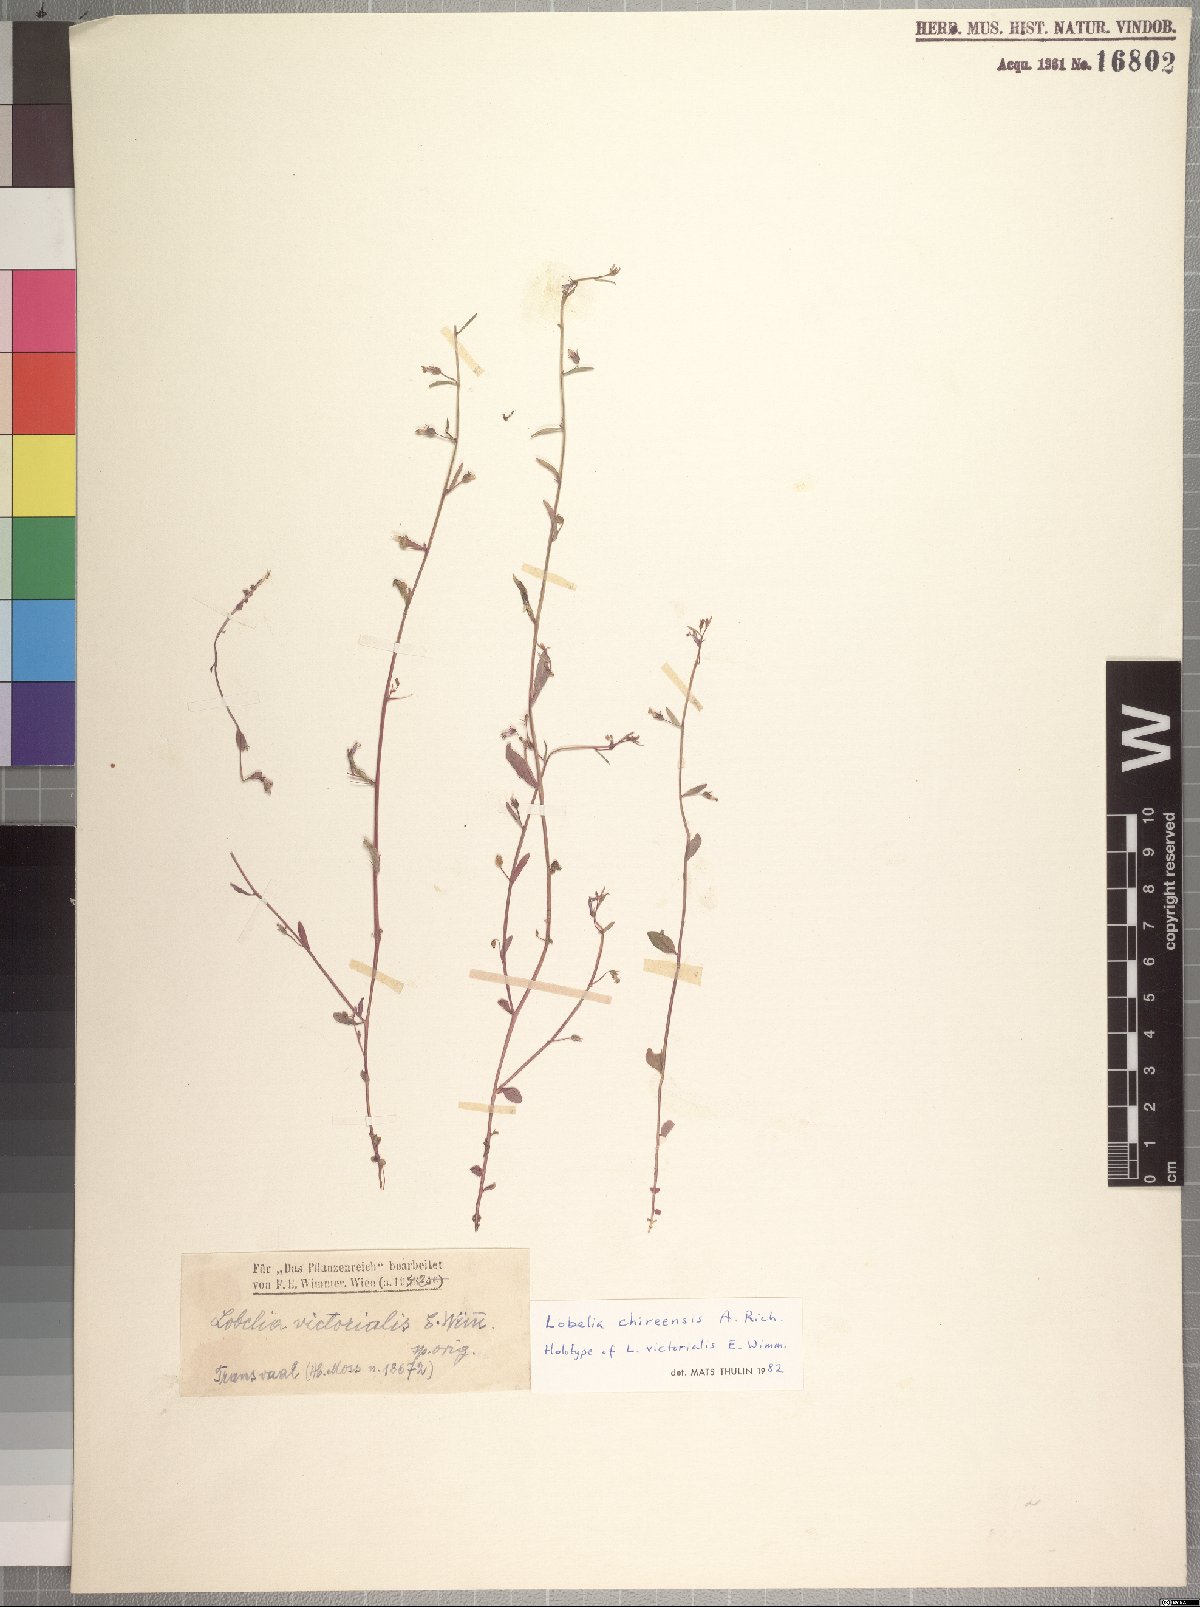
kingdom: Plantae
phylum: Tracheophyta
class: Magnoliopsida
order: Asterales
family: Campanulaceae
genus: Lobelia
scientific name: Lobelia chireensis
